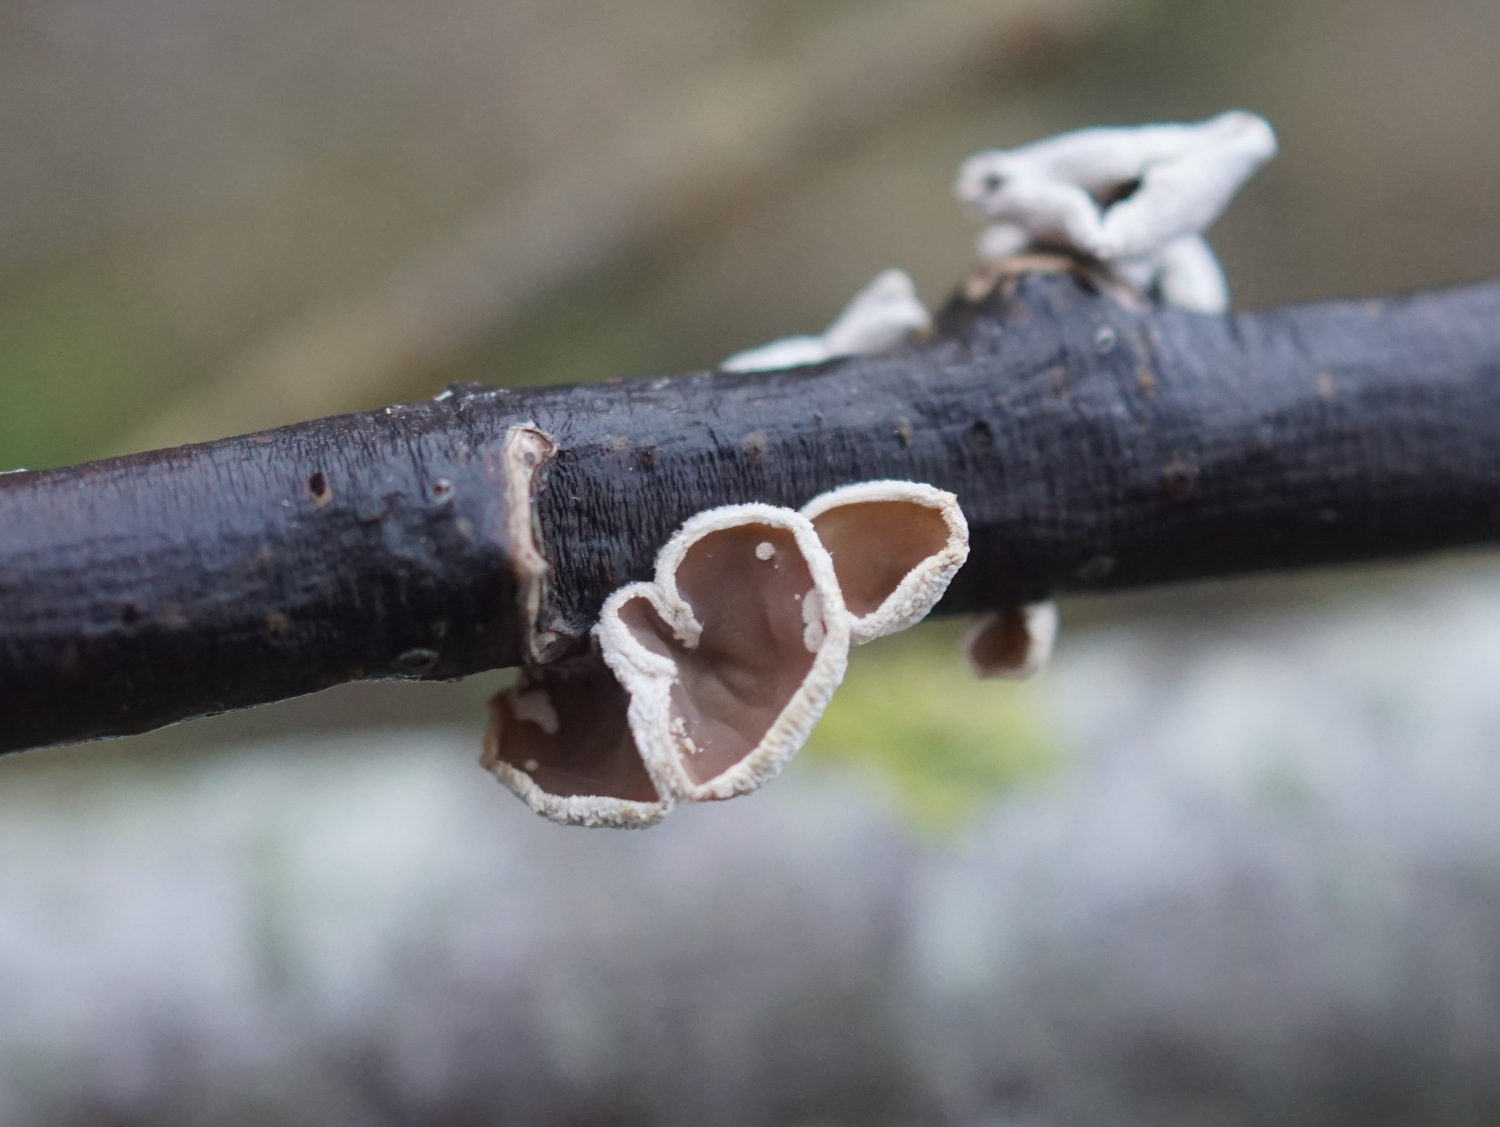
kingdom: Fungi
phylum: Basidiomycota
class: Agaricomycetes
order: Agaricales
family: Schizophyllaceae
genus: Schizophyllum
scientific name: Schizophyllum amplum
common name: poppel-hængeøre
